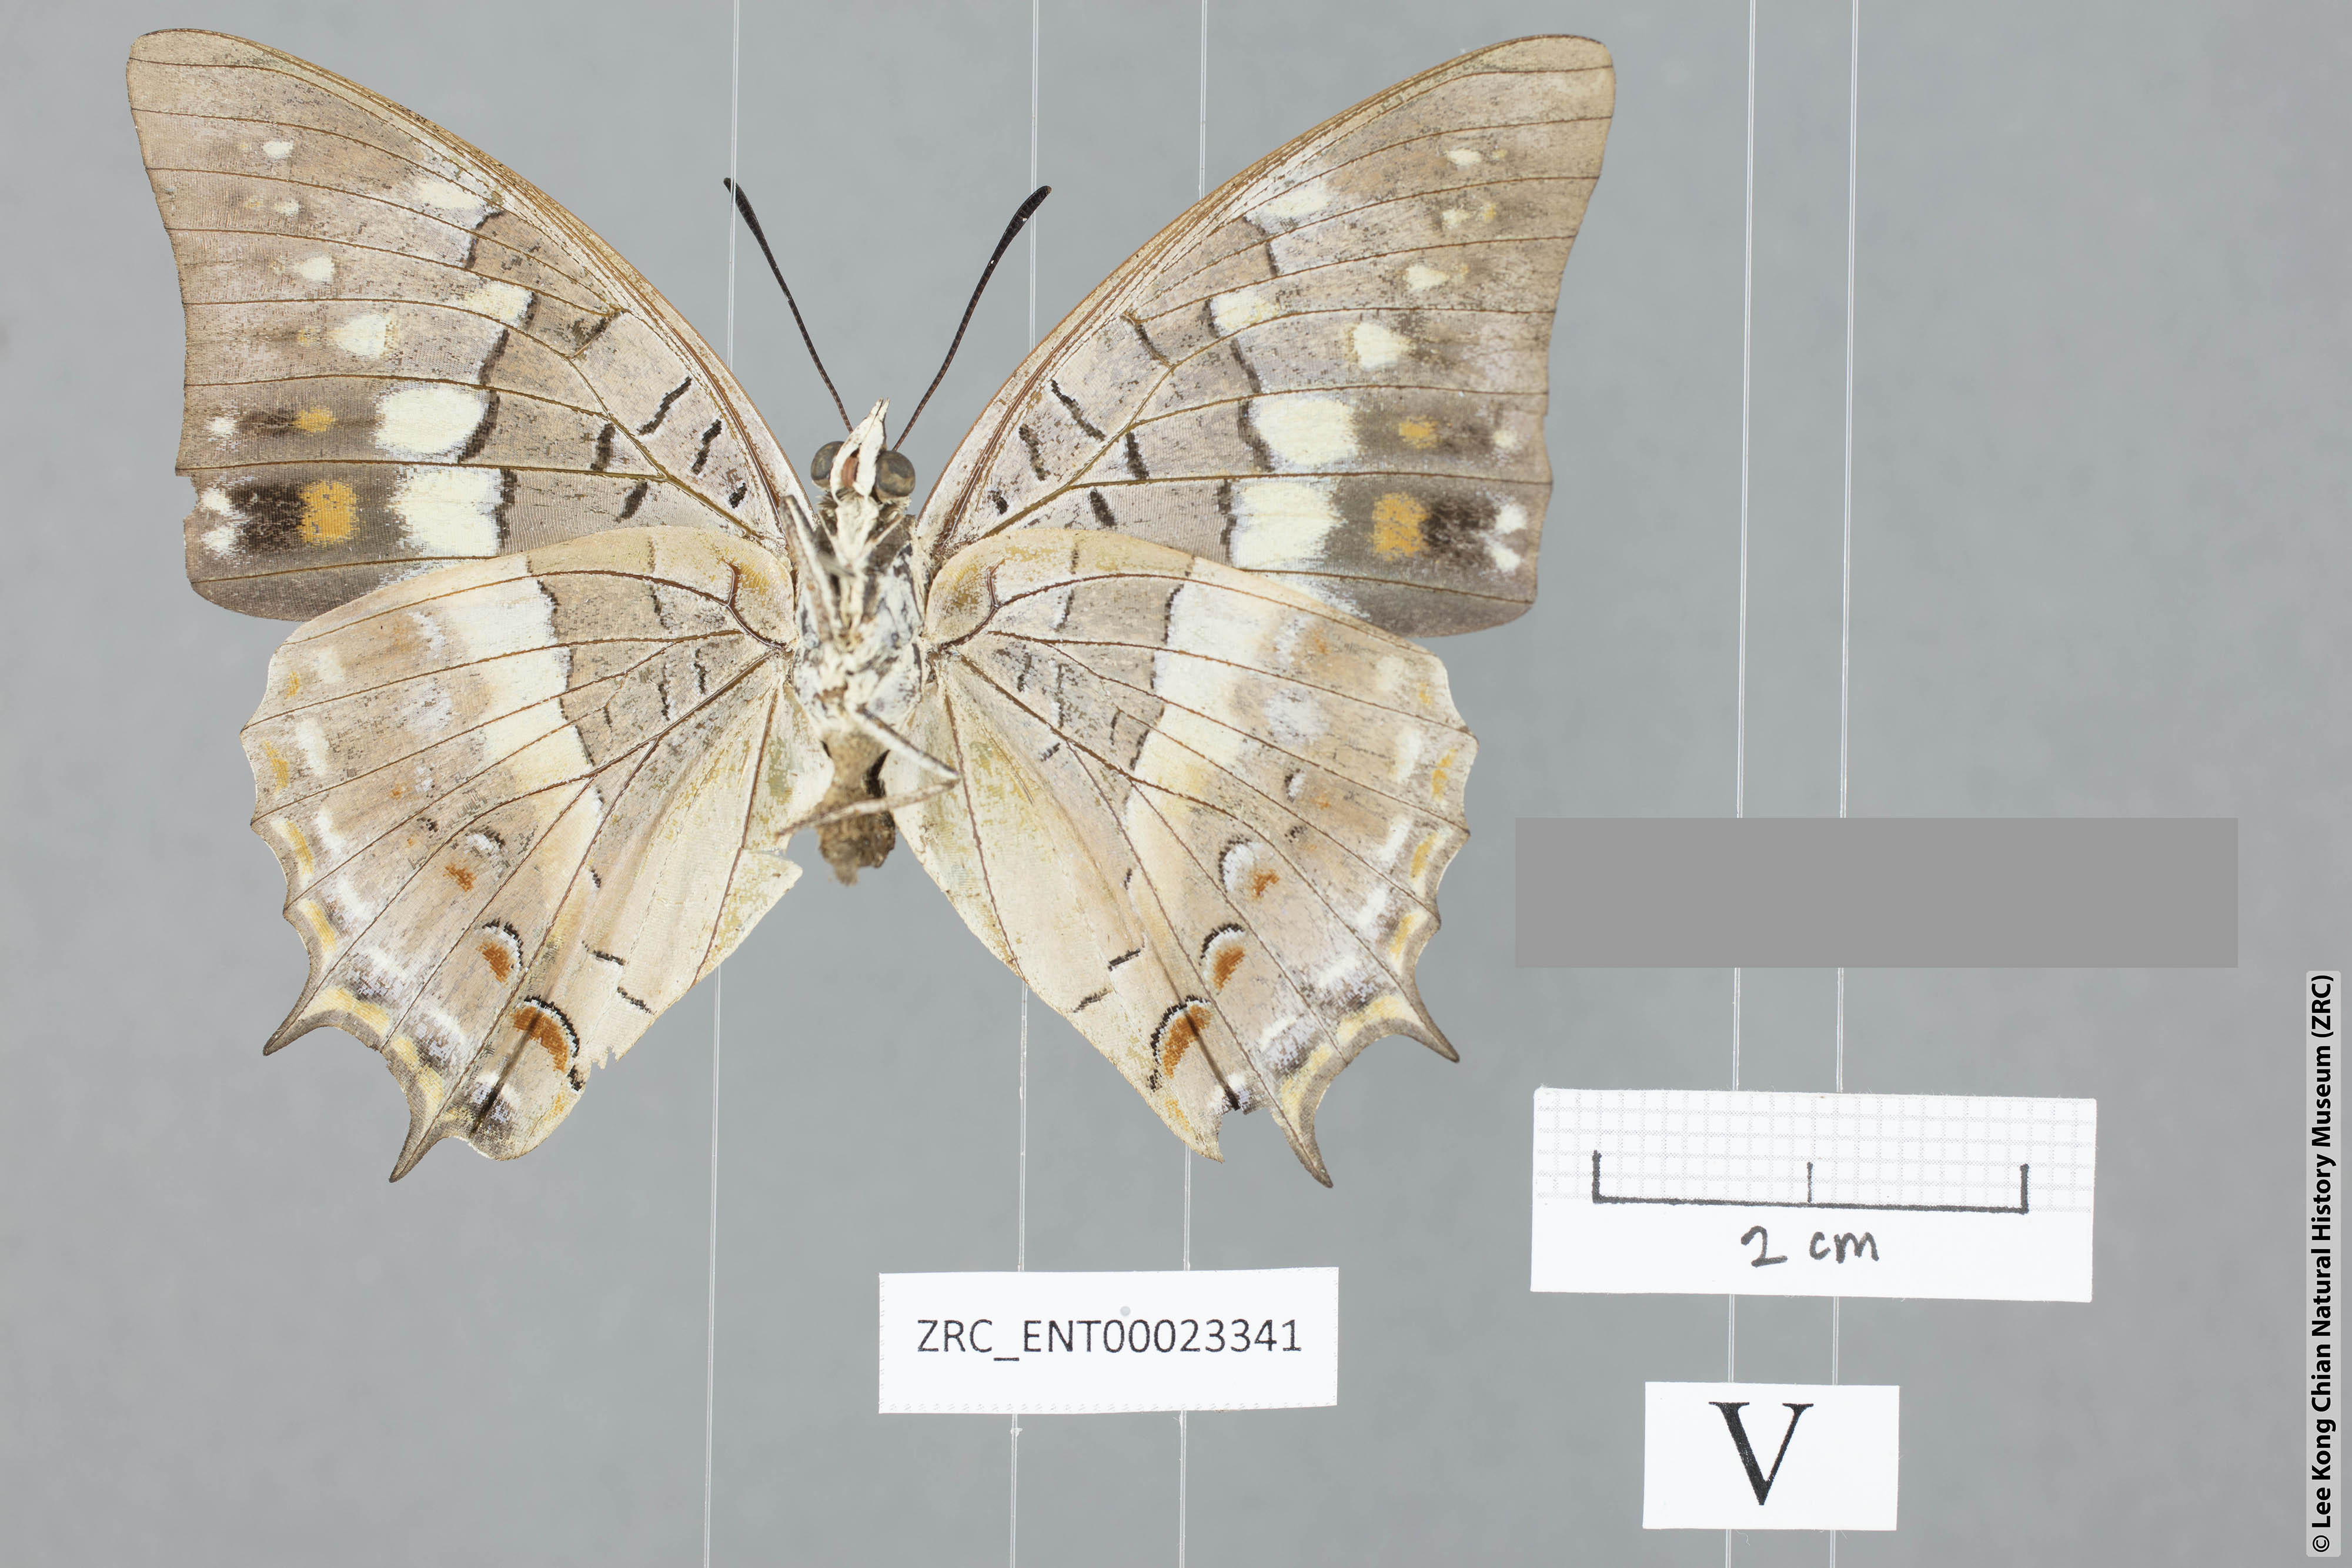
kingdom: Animalia
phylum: Arthropoda
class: Insecta
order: Lepidoptera
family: Nymphalidae
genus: Charaxes
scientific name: Charaxes solon
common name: Black rajah
